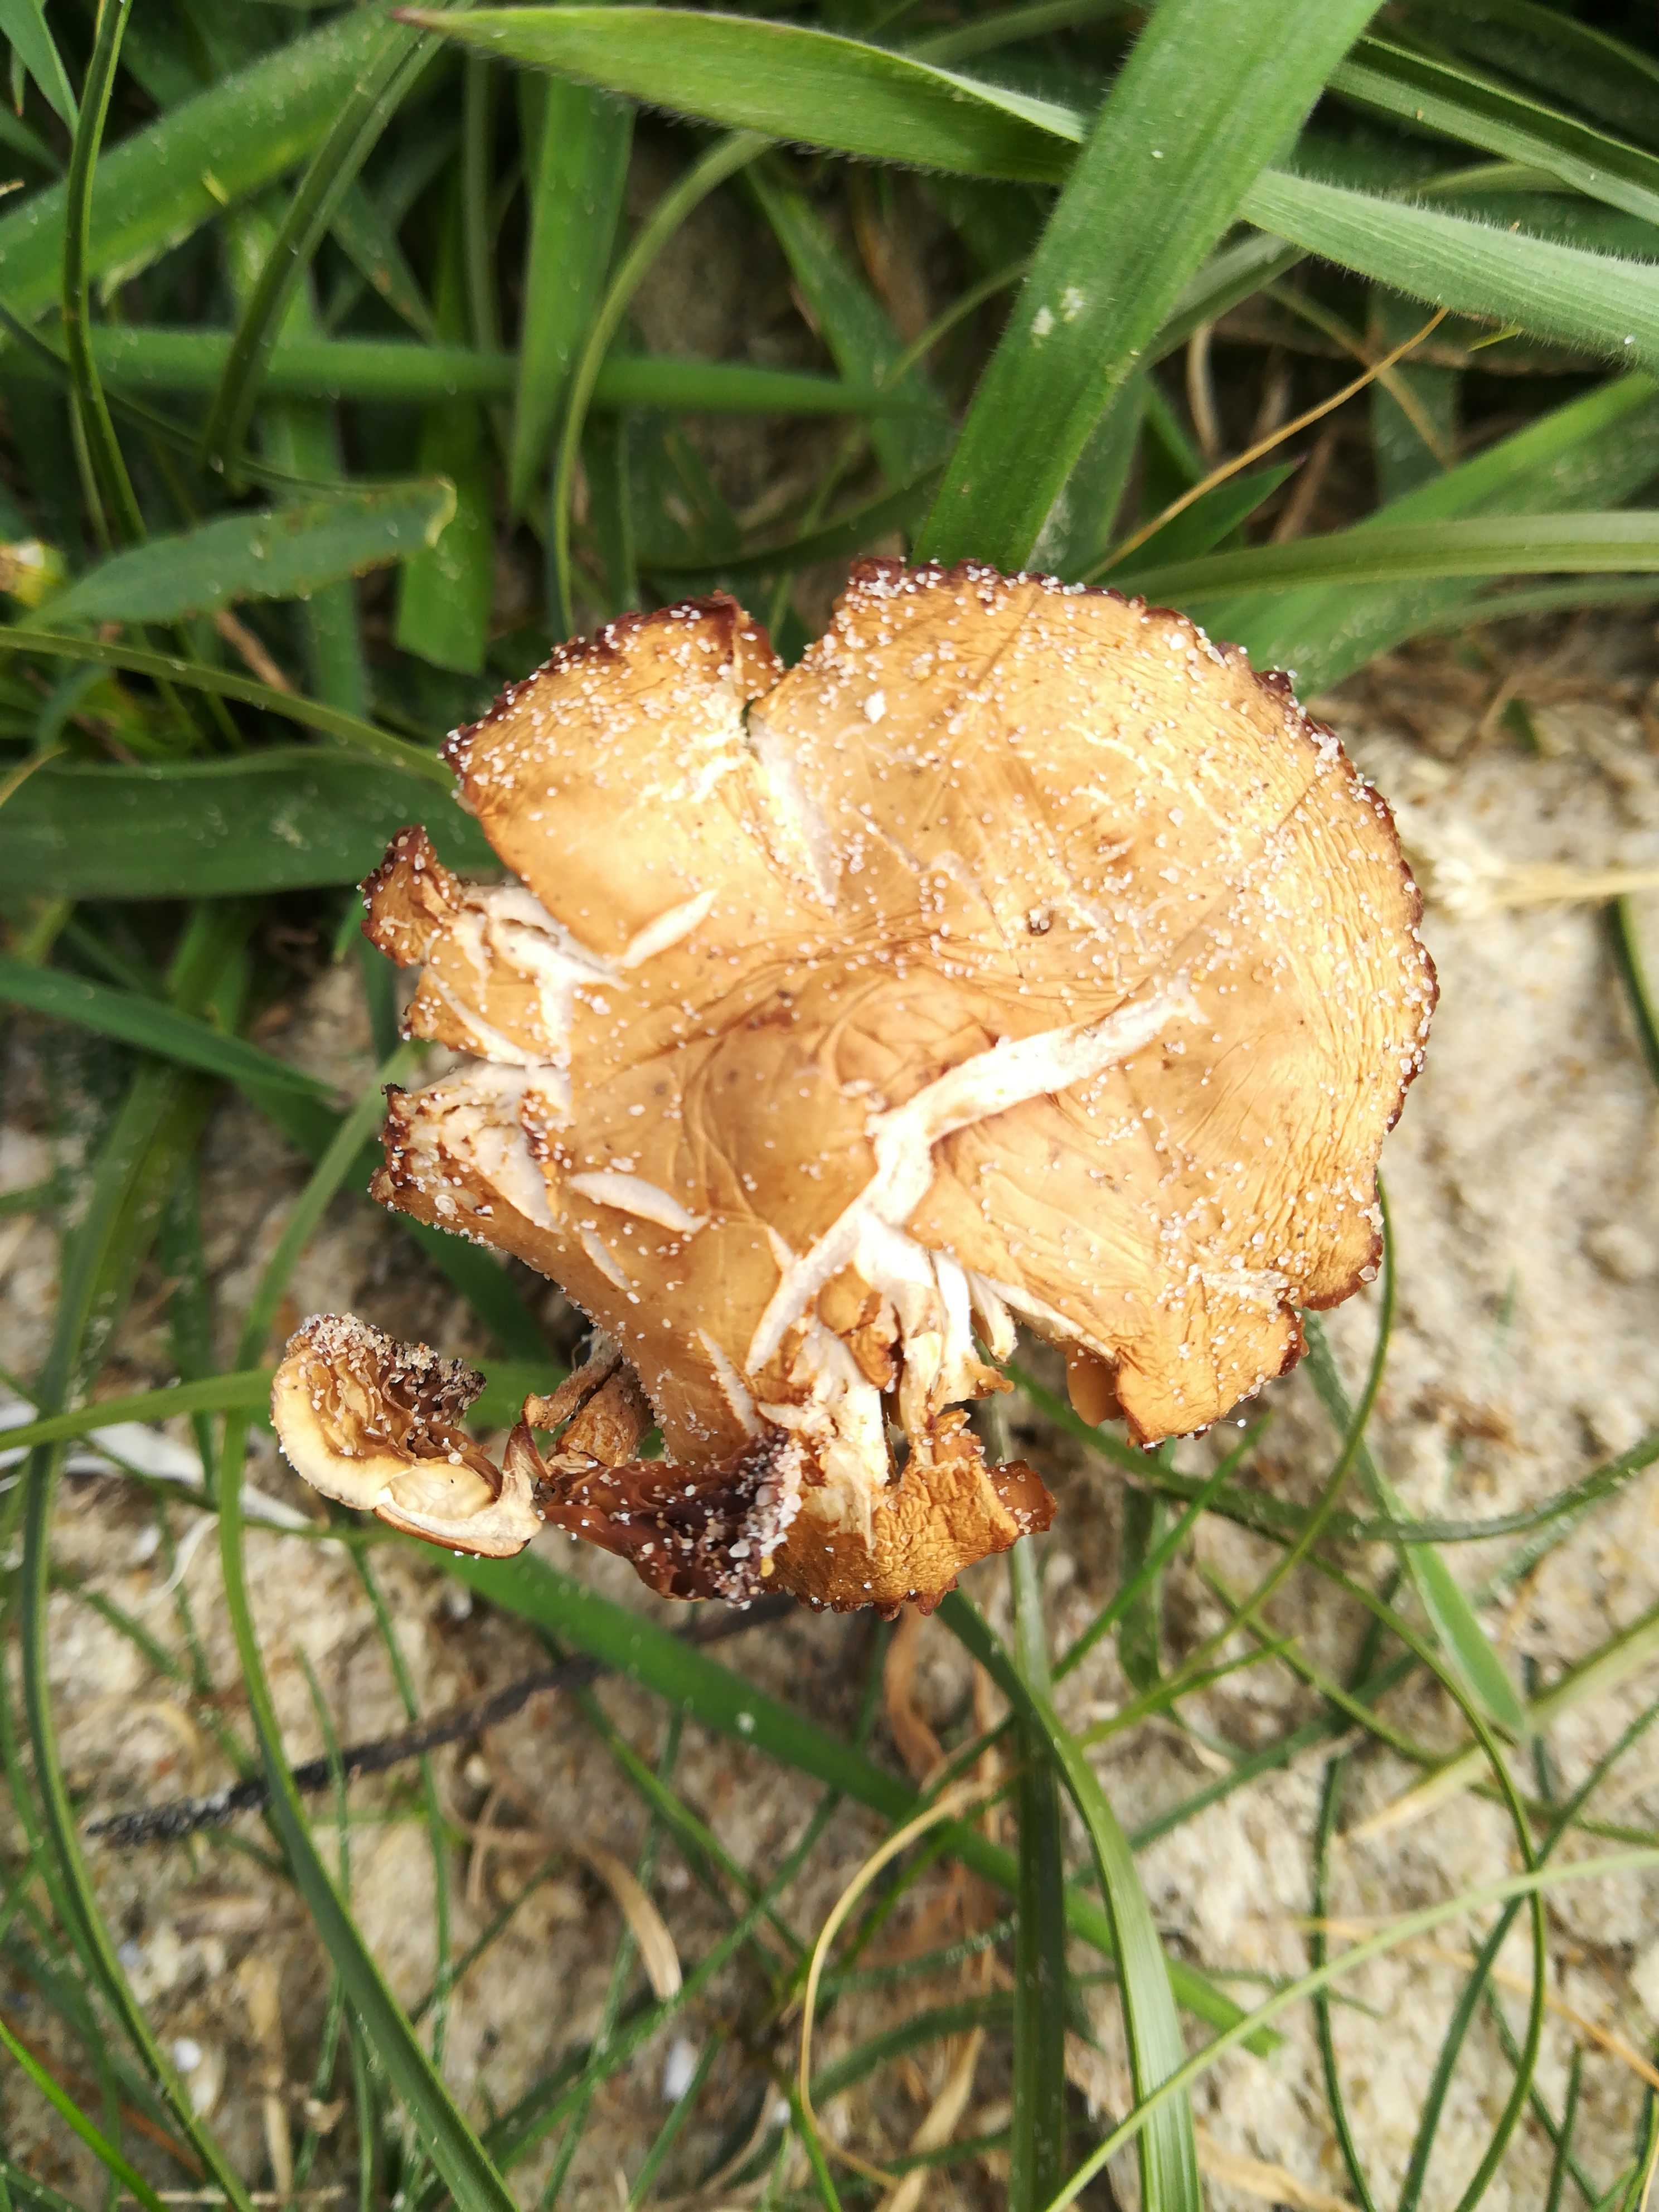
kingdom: Fungi
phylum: Basidiomycota
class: Agaricomycetes
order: Agaricales
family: Marasmiaceae
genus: Marasmius
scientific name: Marasmius oreades
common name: elledans-bruskhat
